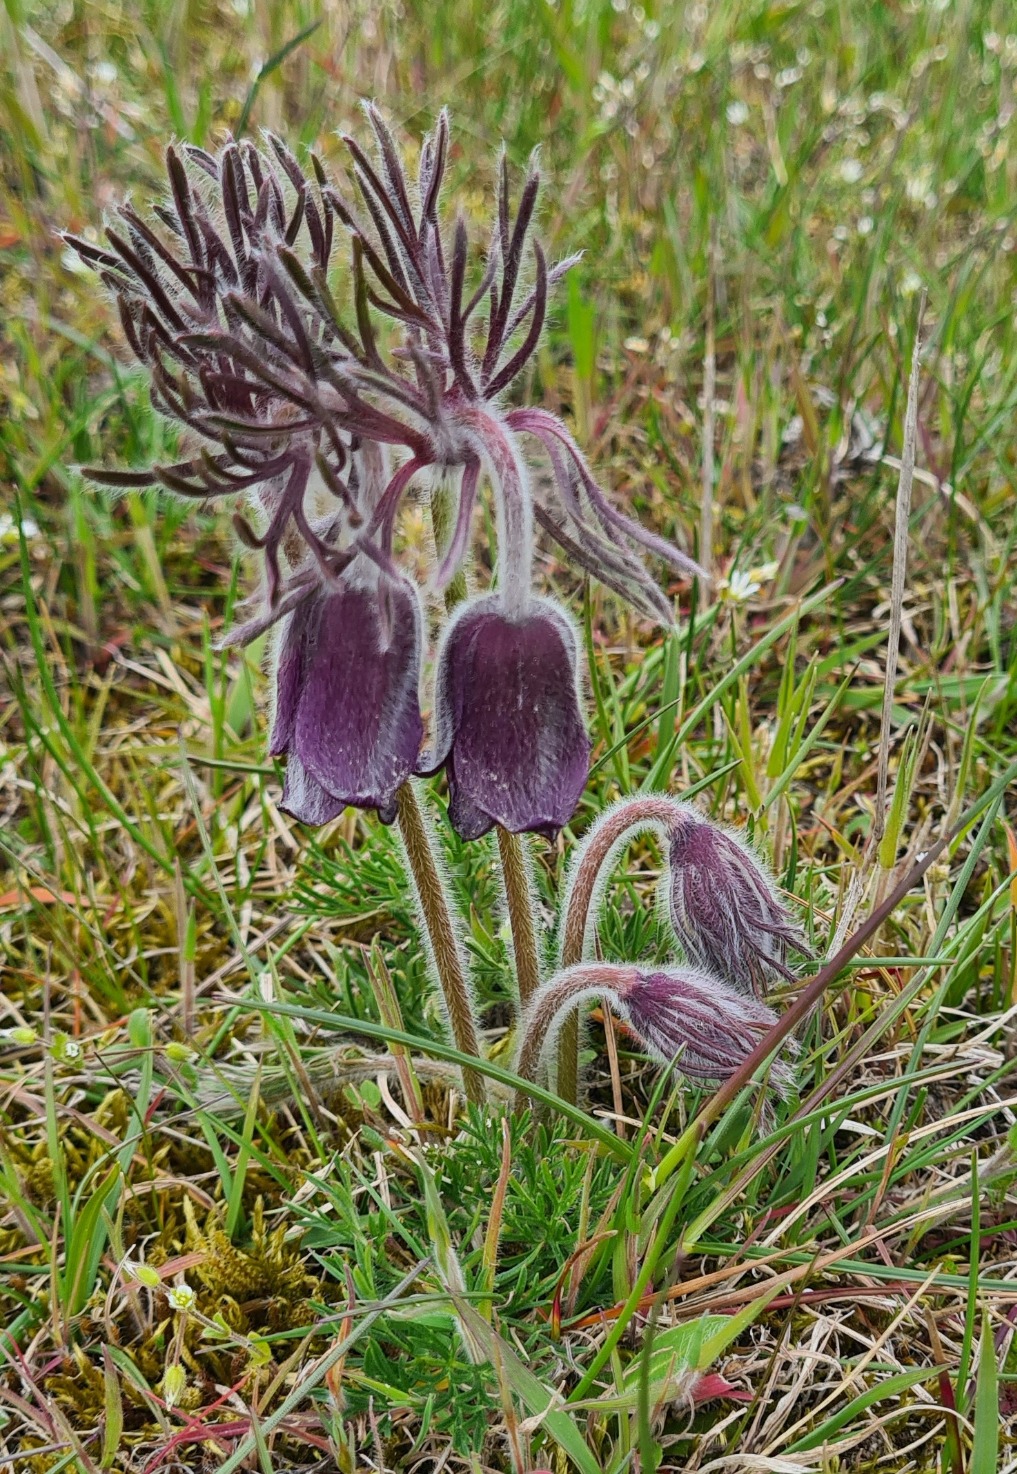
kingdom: Plantae
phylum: Tracheophyta
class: Magnoliopsida
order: Ranunculales
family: Ranunculaceae
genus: Pulsatilla
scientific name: Pulsatilla pratensis
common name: Nikkende kobjælde
